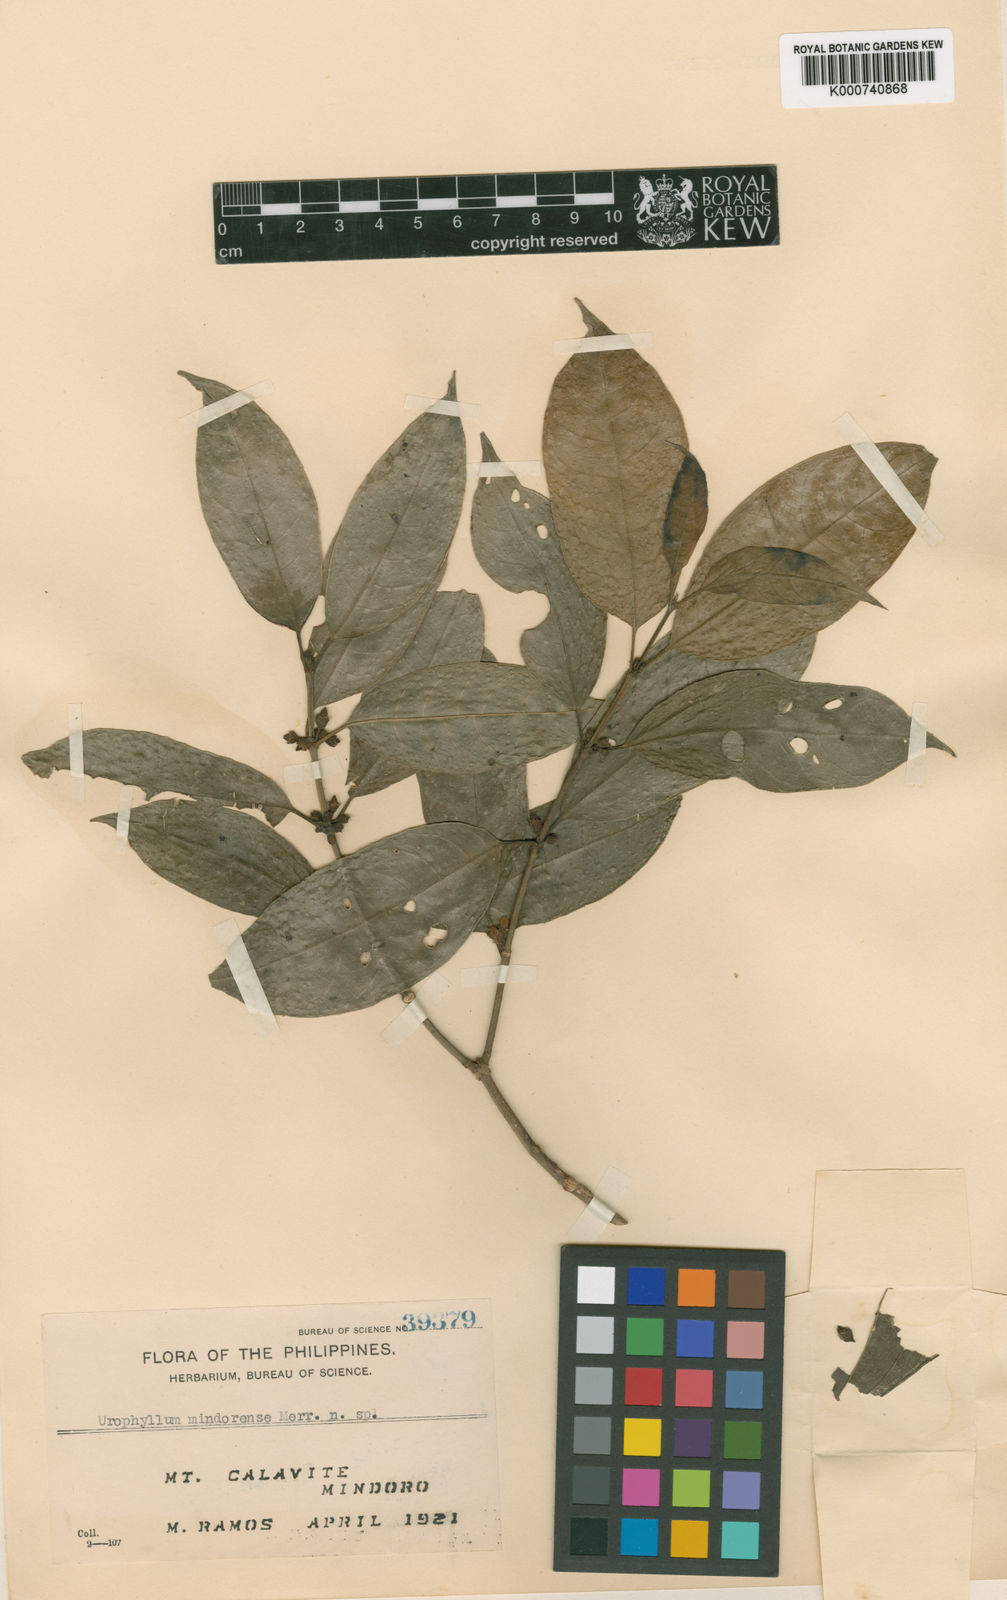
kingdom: Plantae
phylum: Tracheophyta
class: Magnoliopsida
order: Gentianales
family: Rubiaceae
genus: Urophyllum
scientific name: Urophyllum mindorense
